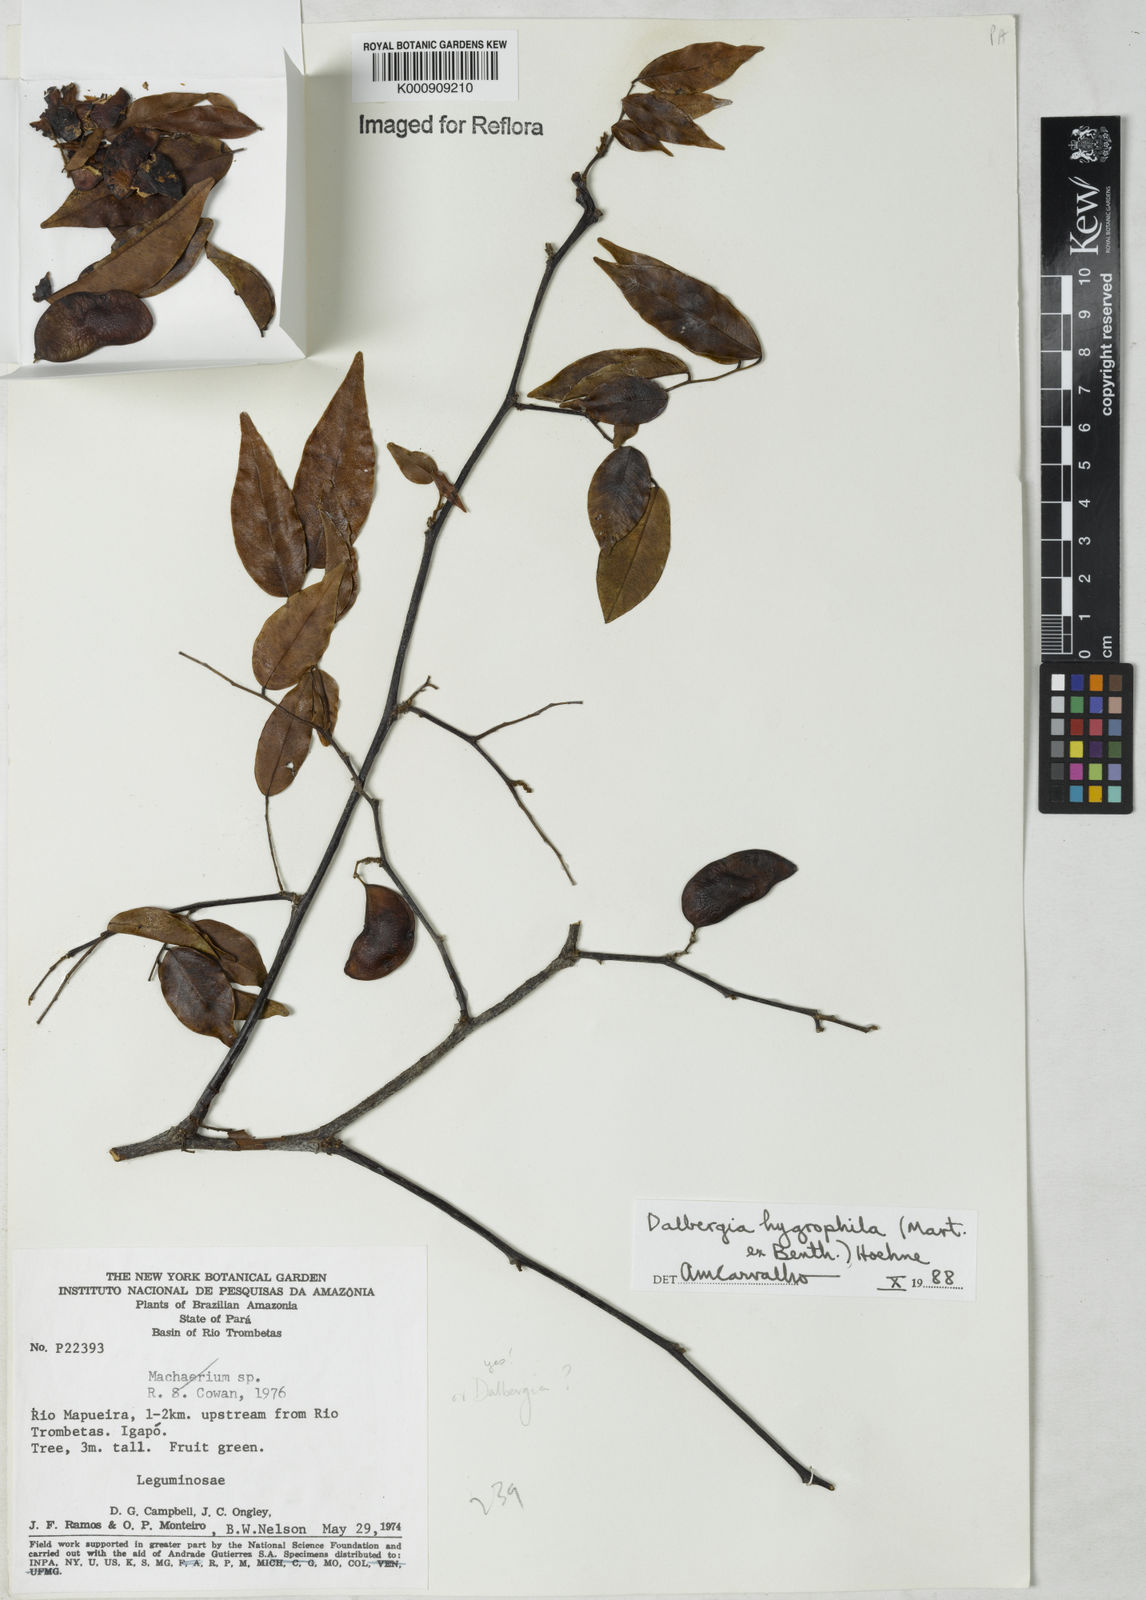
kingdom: Plantae
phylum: Tracheophyta
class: Magnoliopsida
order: Fabales
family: Fabaceae
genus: Dalbergia
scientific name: Dalbergia hygrophila
